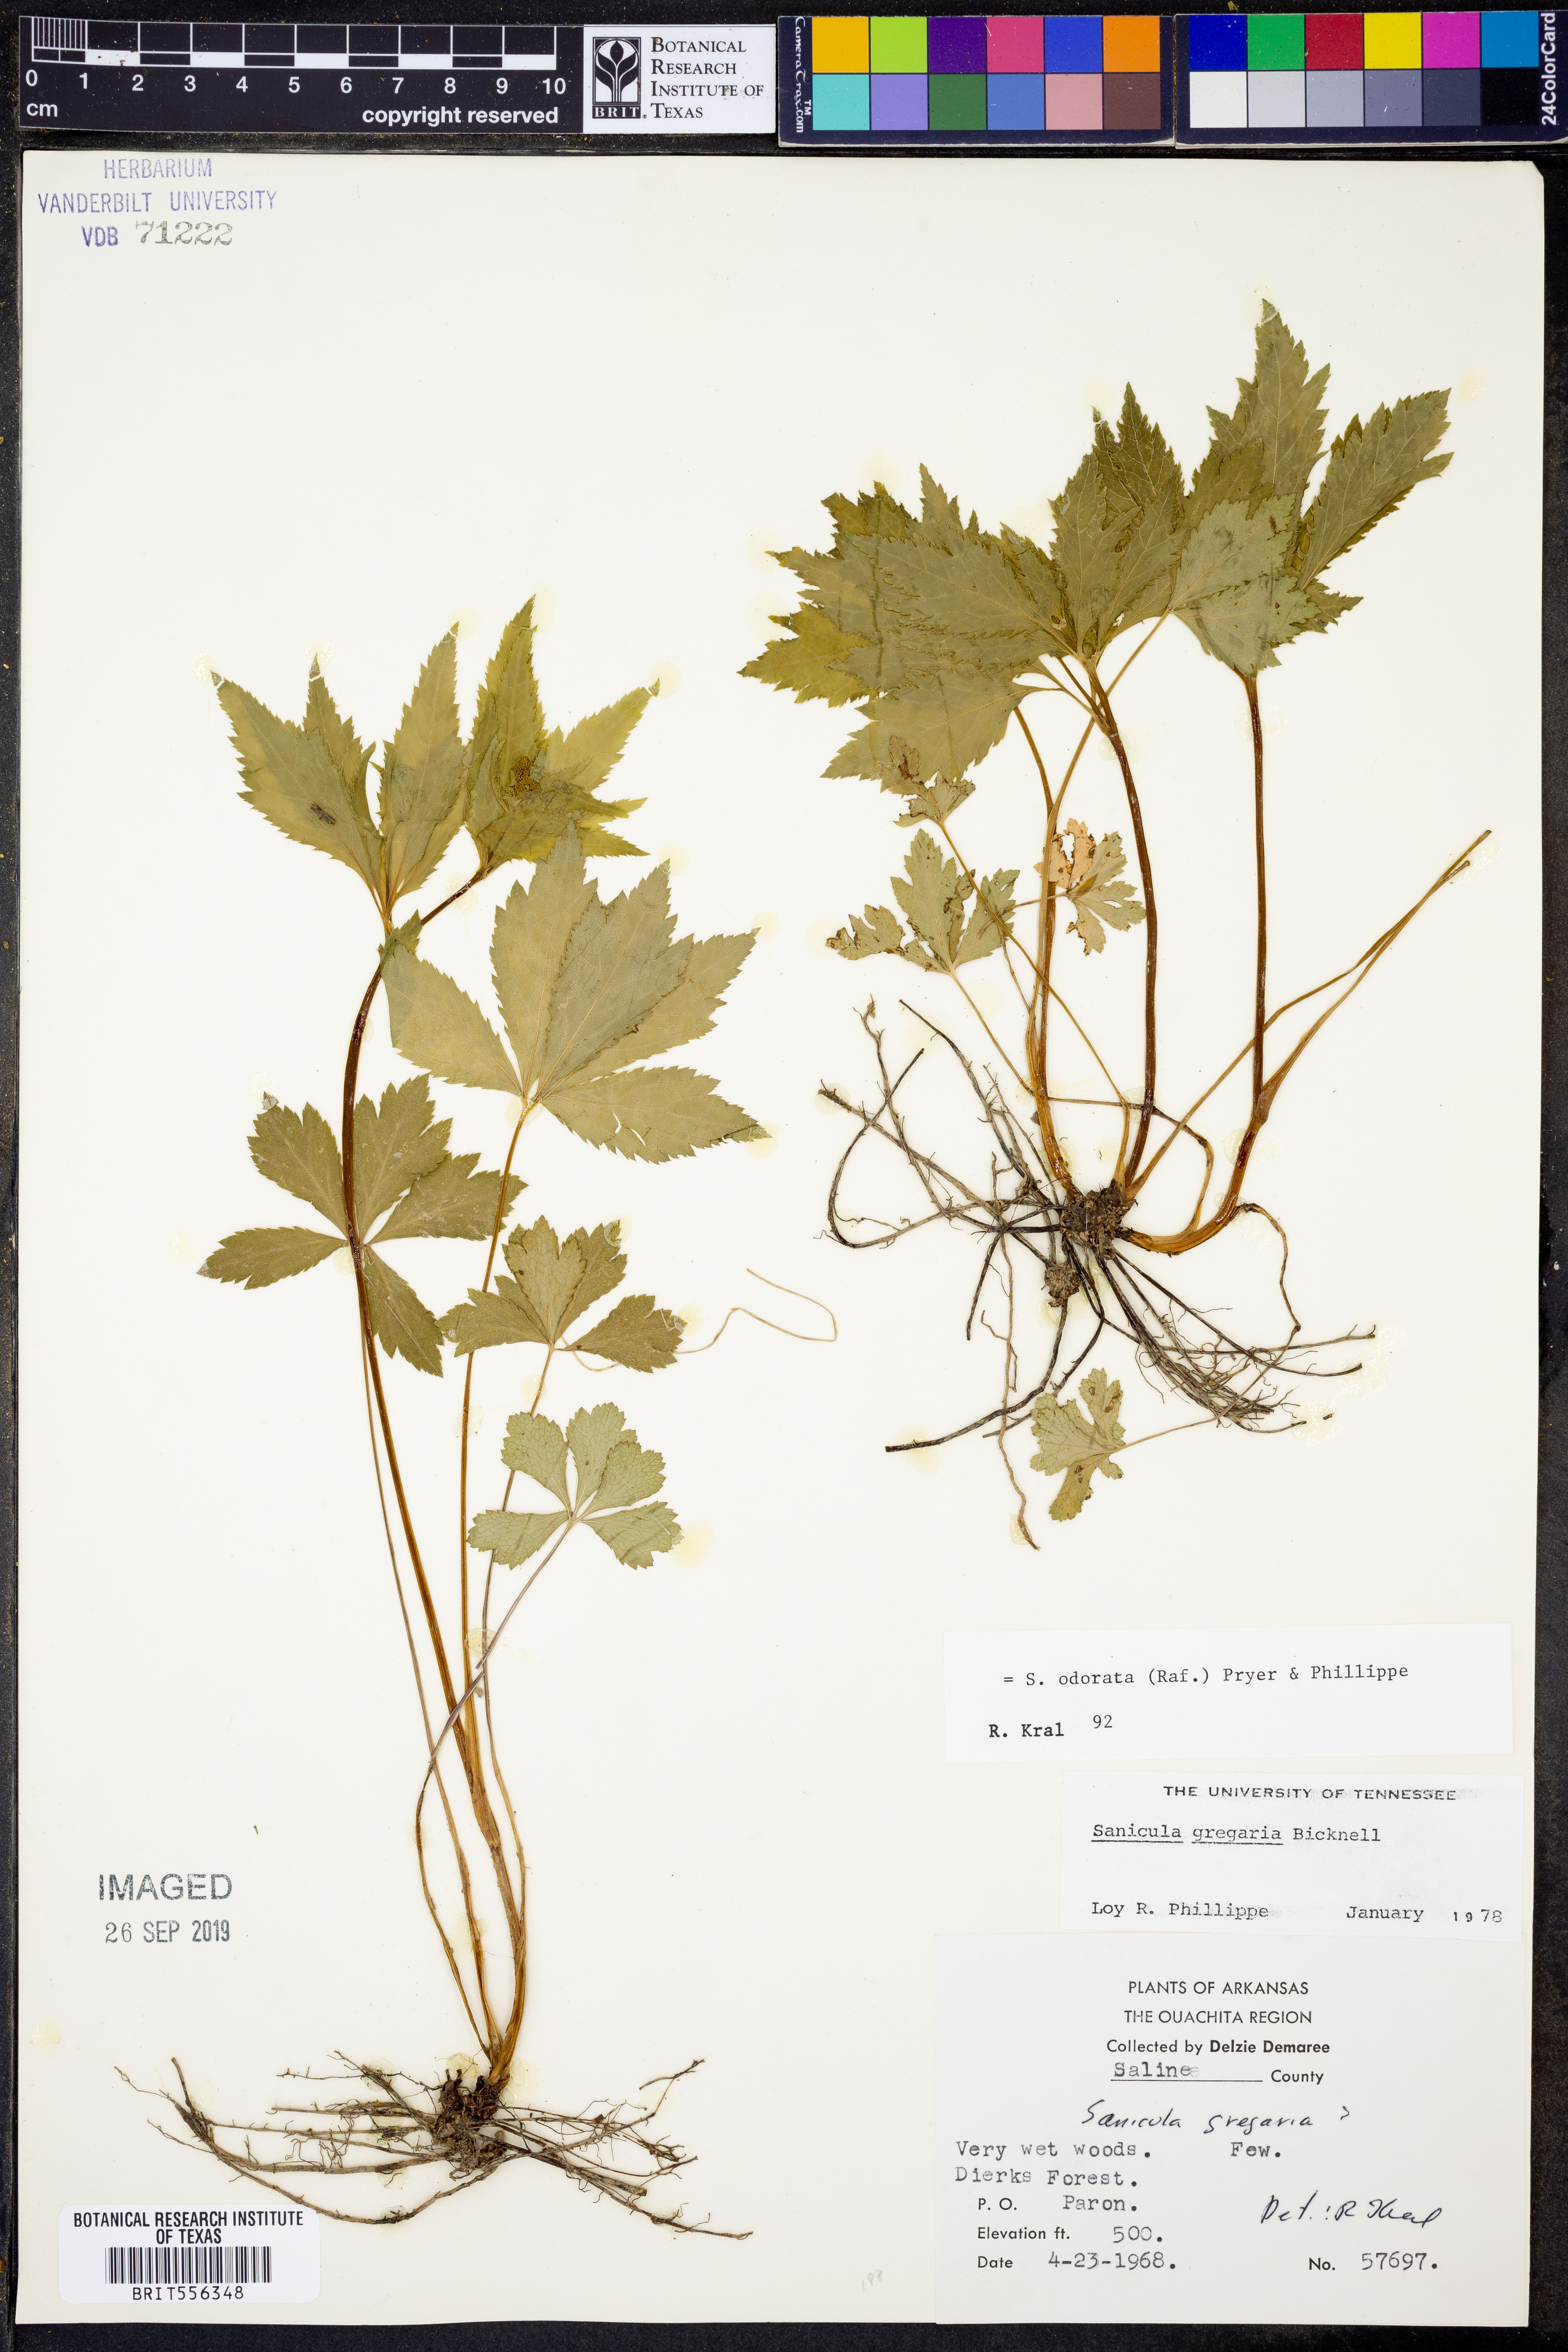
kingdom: Plantae
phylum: Tracheophyta
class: Magnoliopsida
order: Apiales
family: Apiaceae
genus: Sanicula
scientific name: Sanicula odorata
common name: Cluster sanicle
